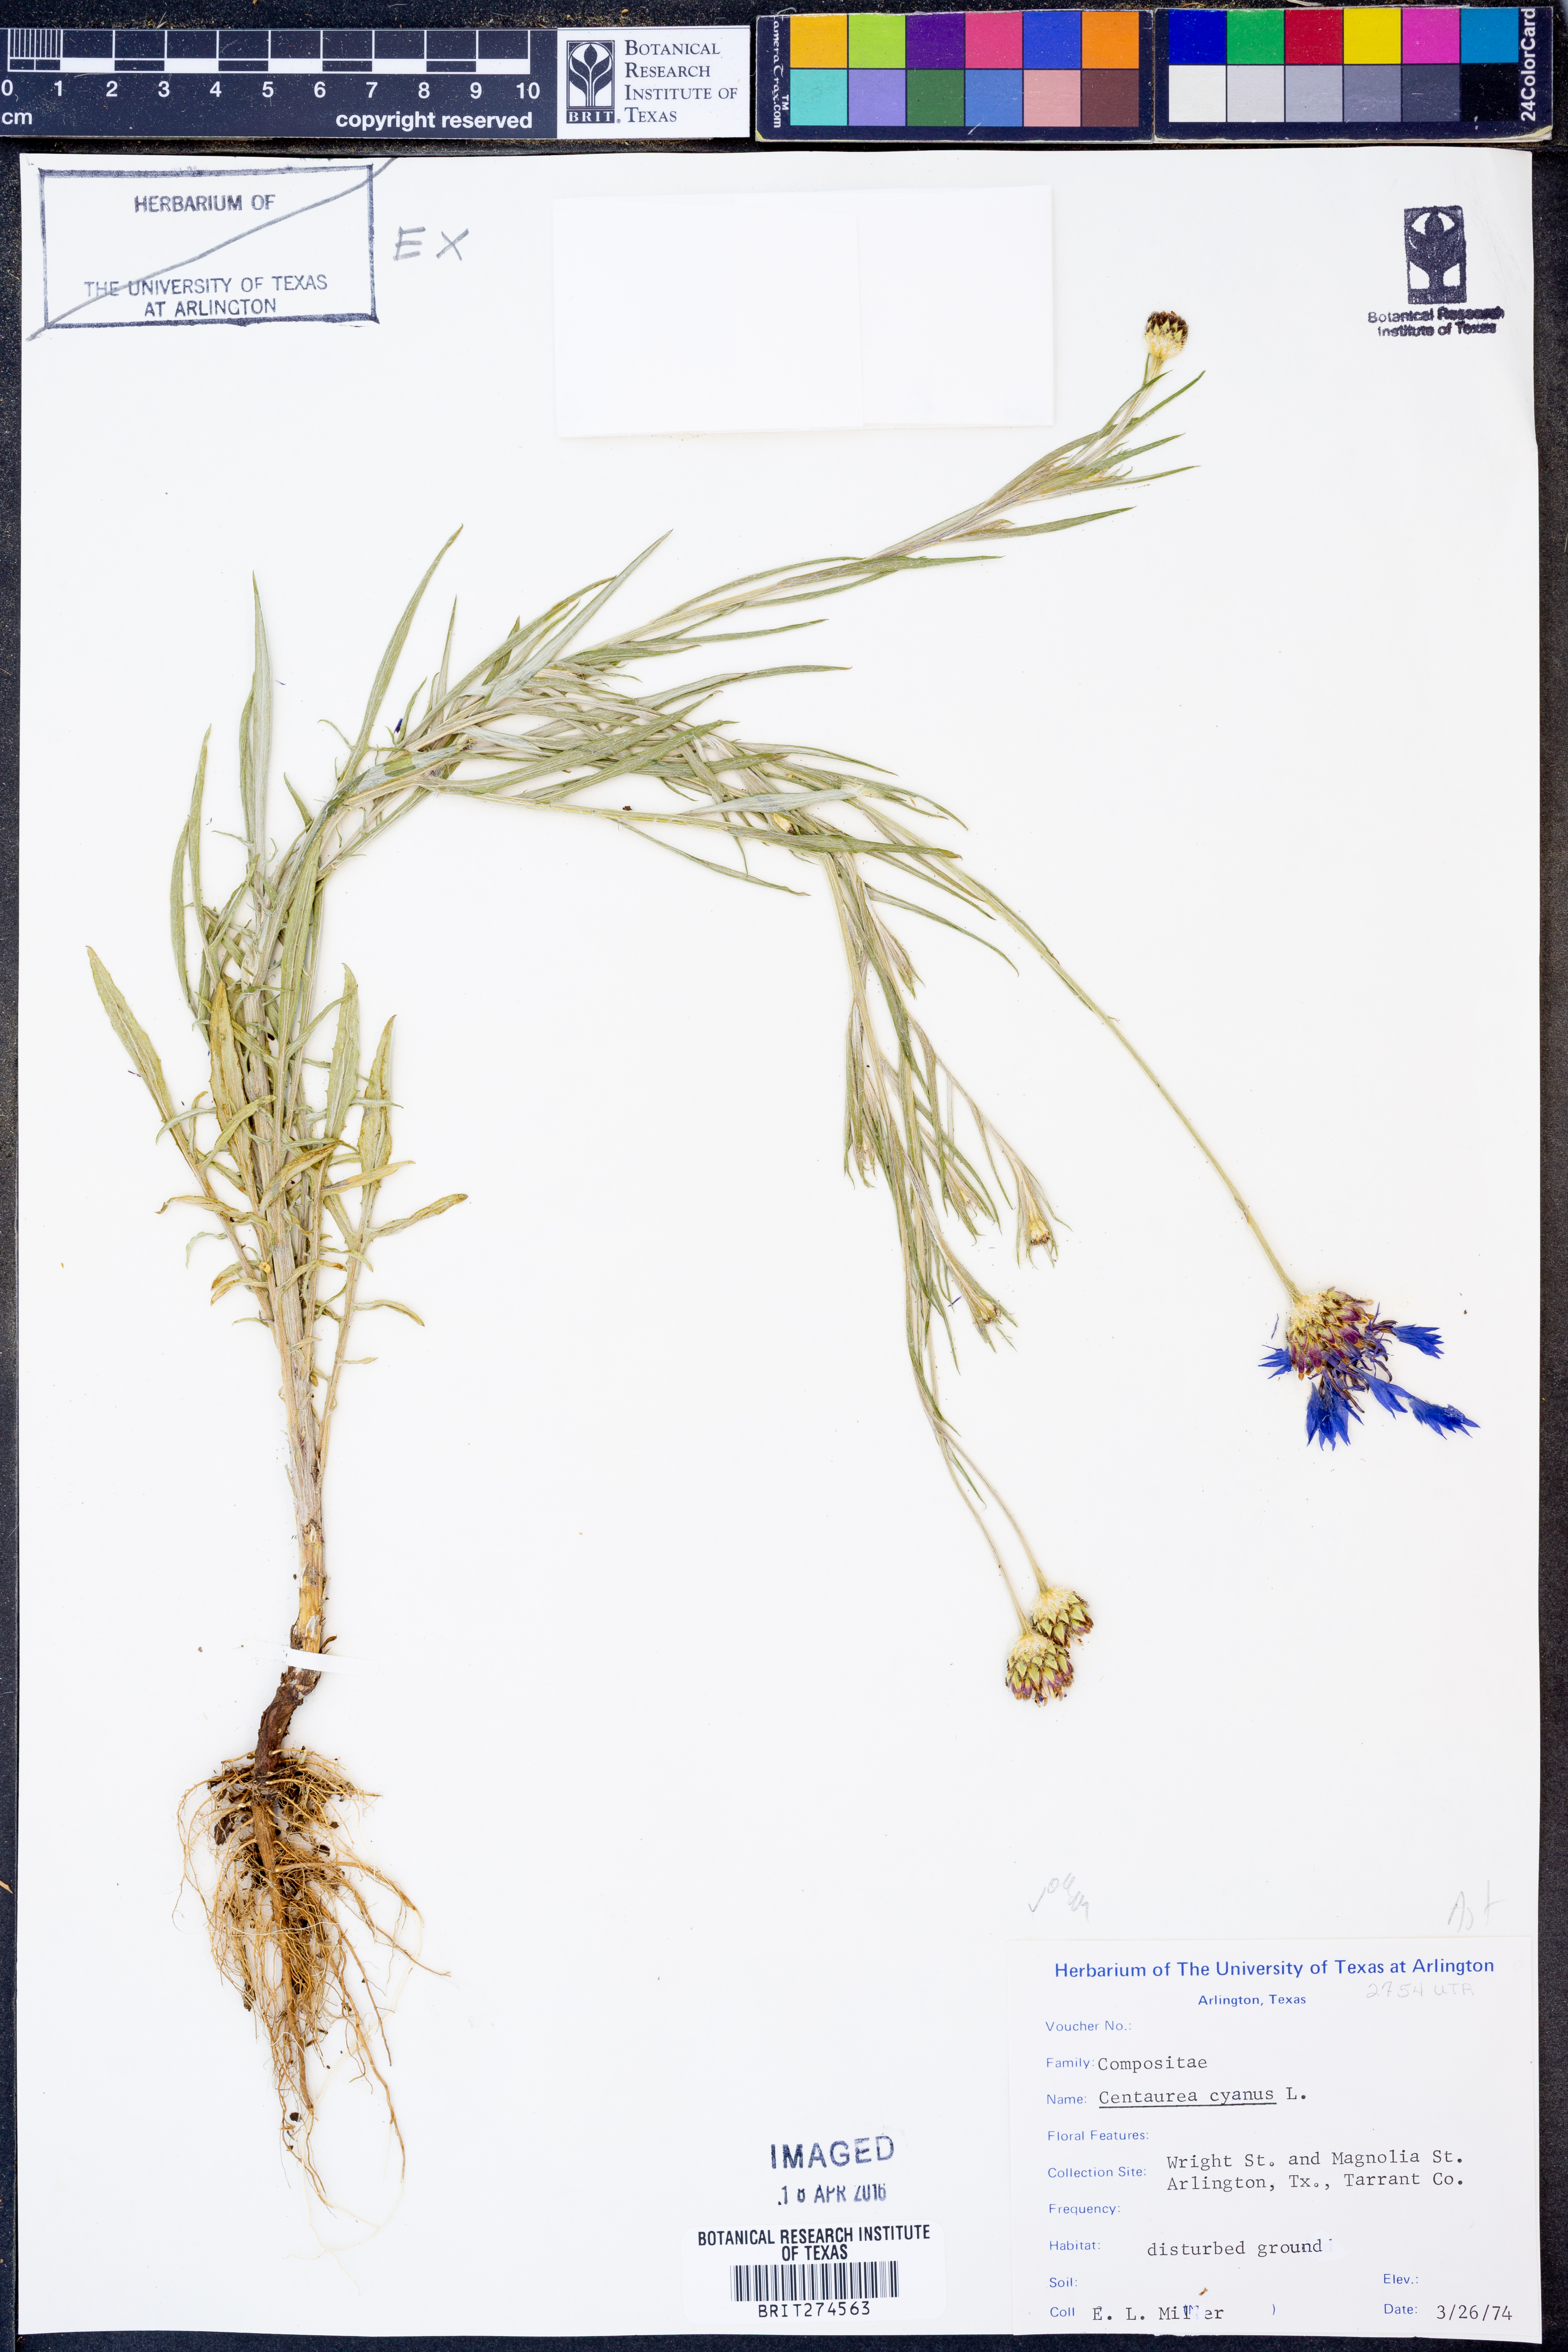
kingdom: Plantae
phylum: Tracheophyta
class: Magnoliopsida
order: Asterales
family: Asteraceae
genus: Centaurea
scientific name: Centaurea cyanus
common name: Cornflower
